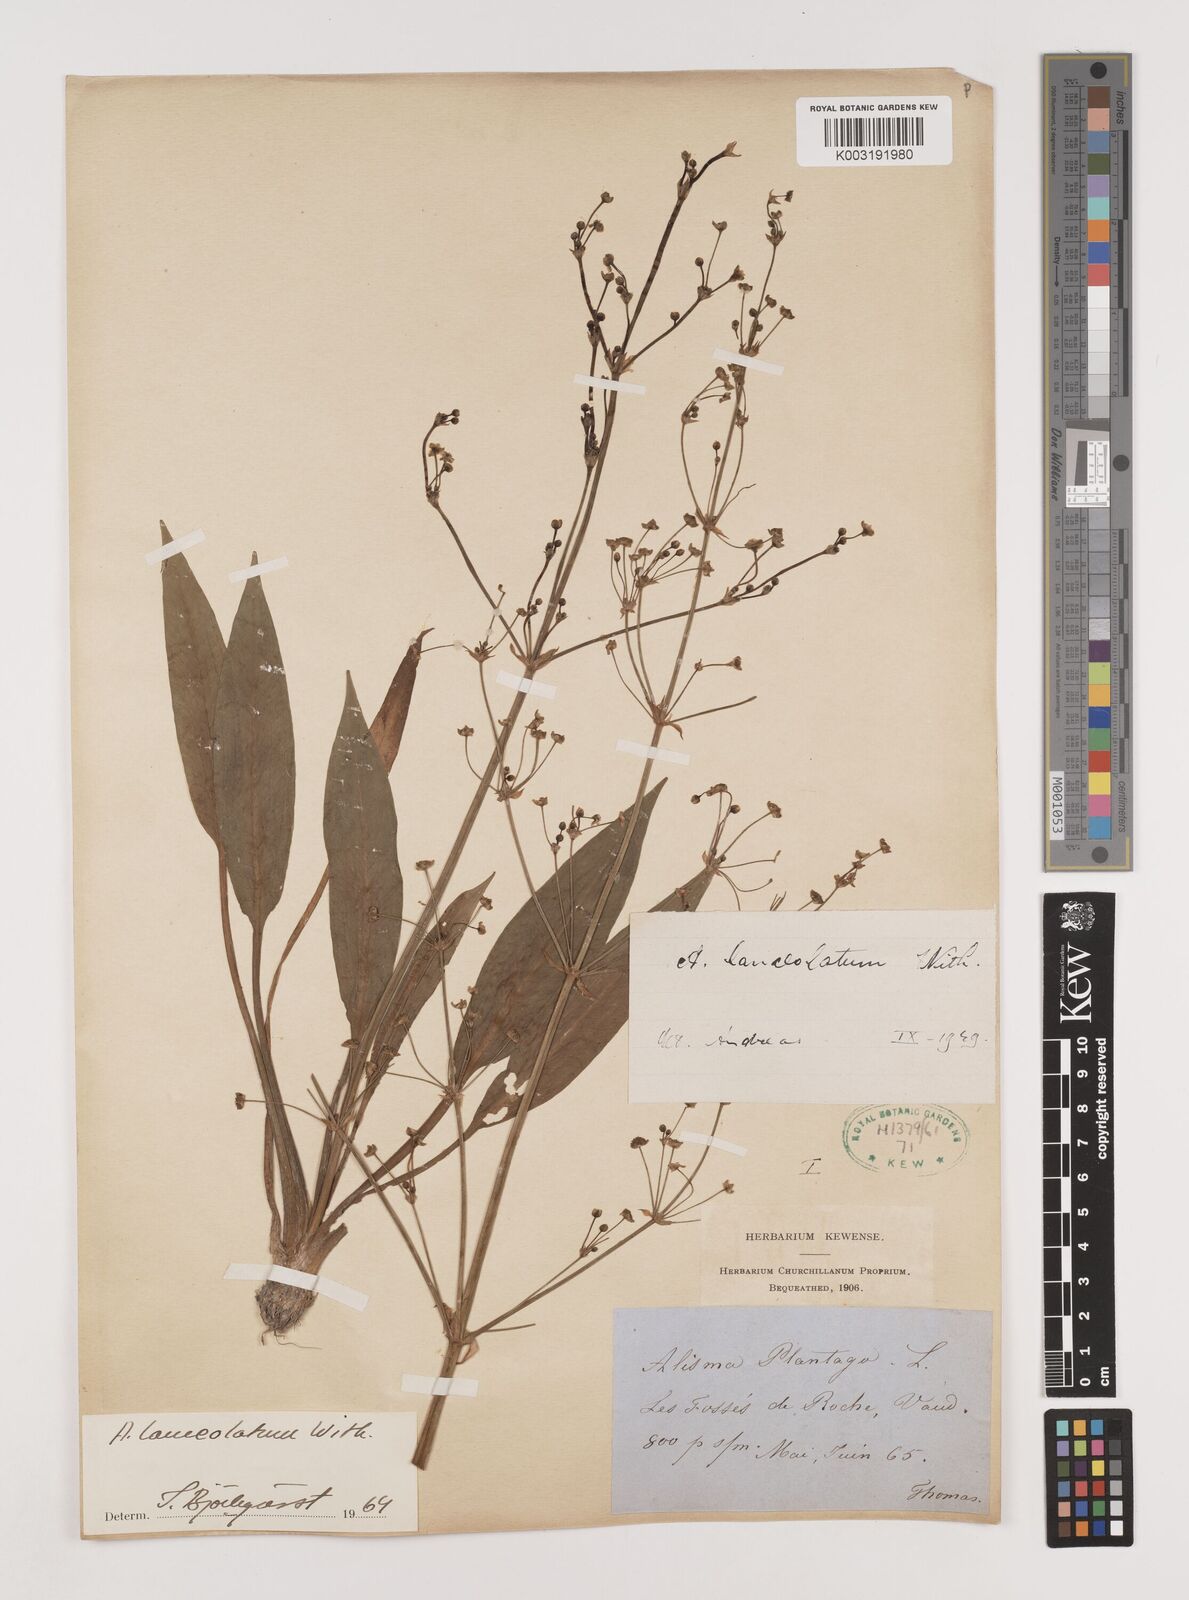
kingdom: Plantae
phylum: Tracheophyta
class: Liliopsida
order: Alismatales
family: Alismataceae
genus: Alisma
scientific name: Alisma lanceolatum
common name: Narrow-leaved water-plantain
